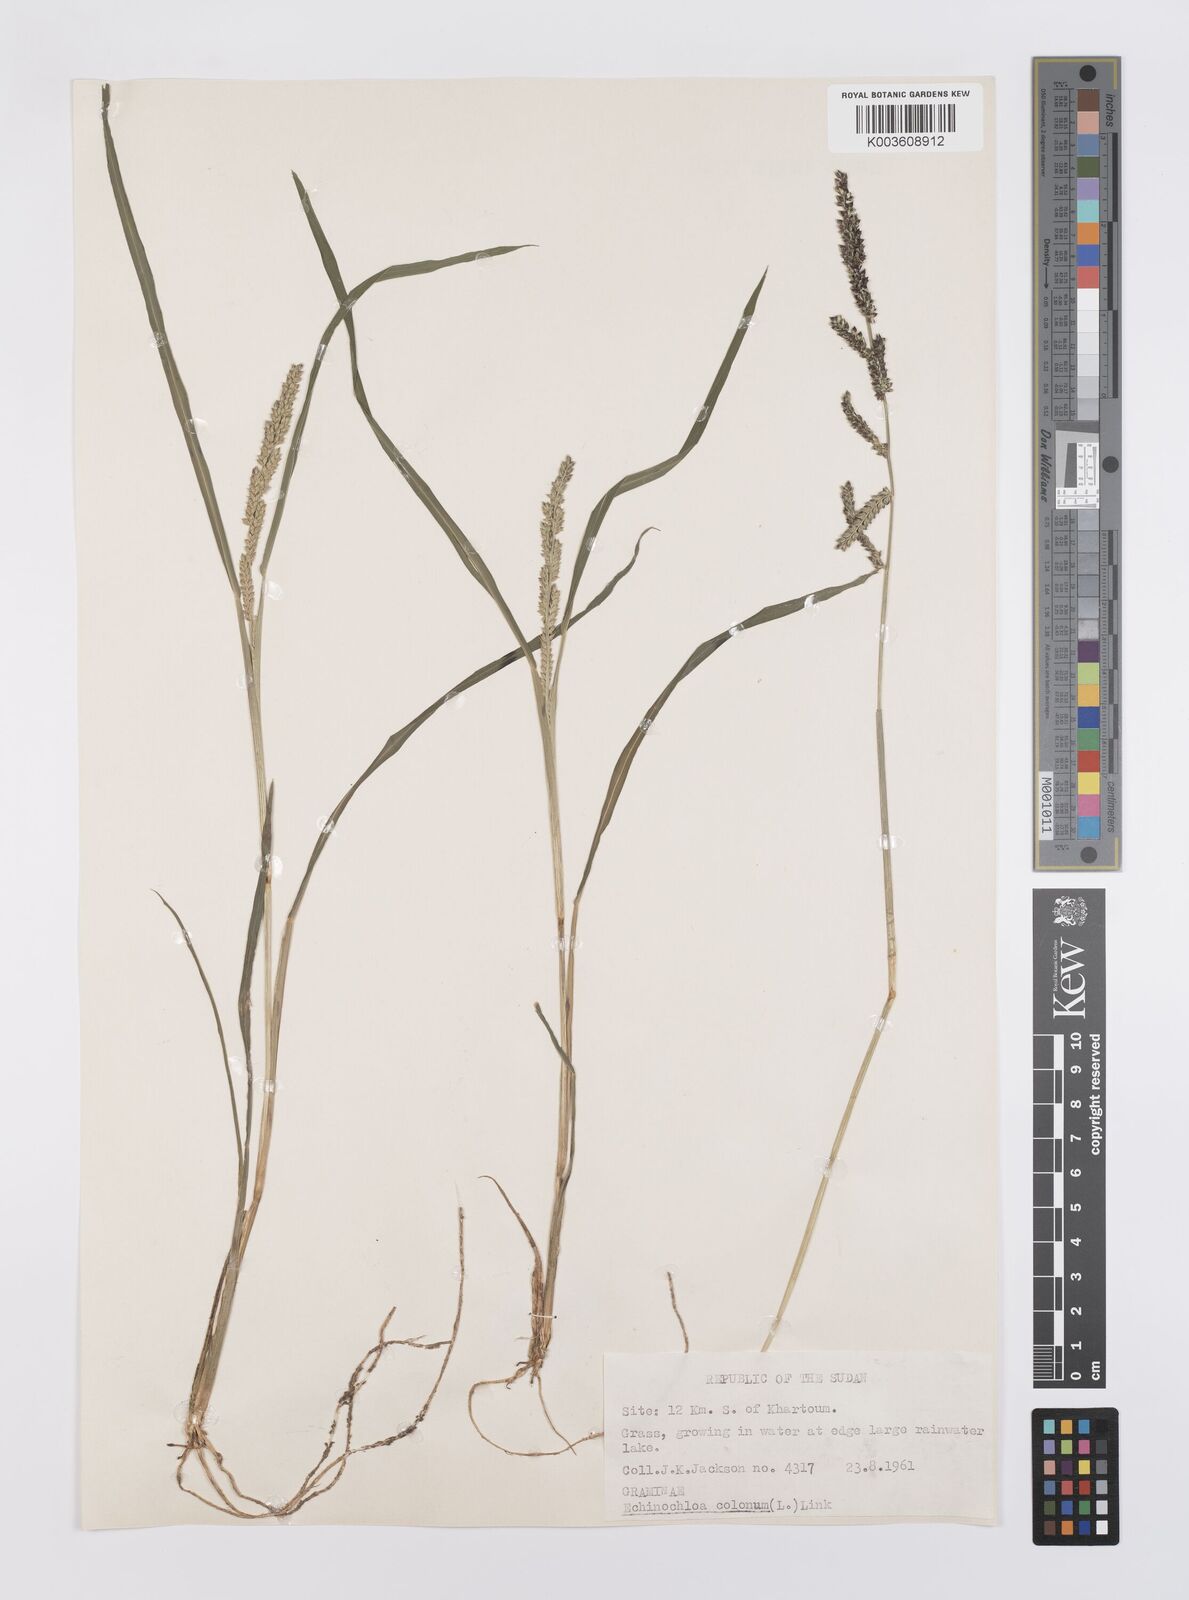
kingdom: Plantae
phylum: Tracheophyta
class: Liliopsida
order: Poales
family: Poaceae
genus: Echinochloa
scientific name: Echinochloa colonum
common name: Jungle rice
